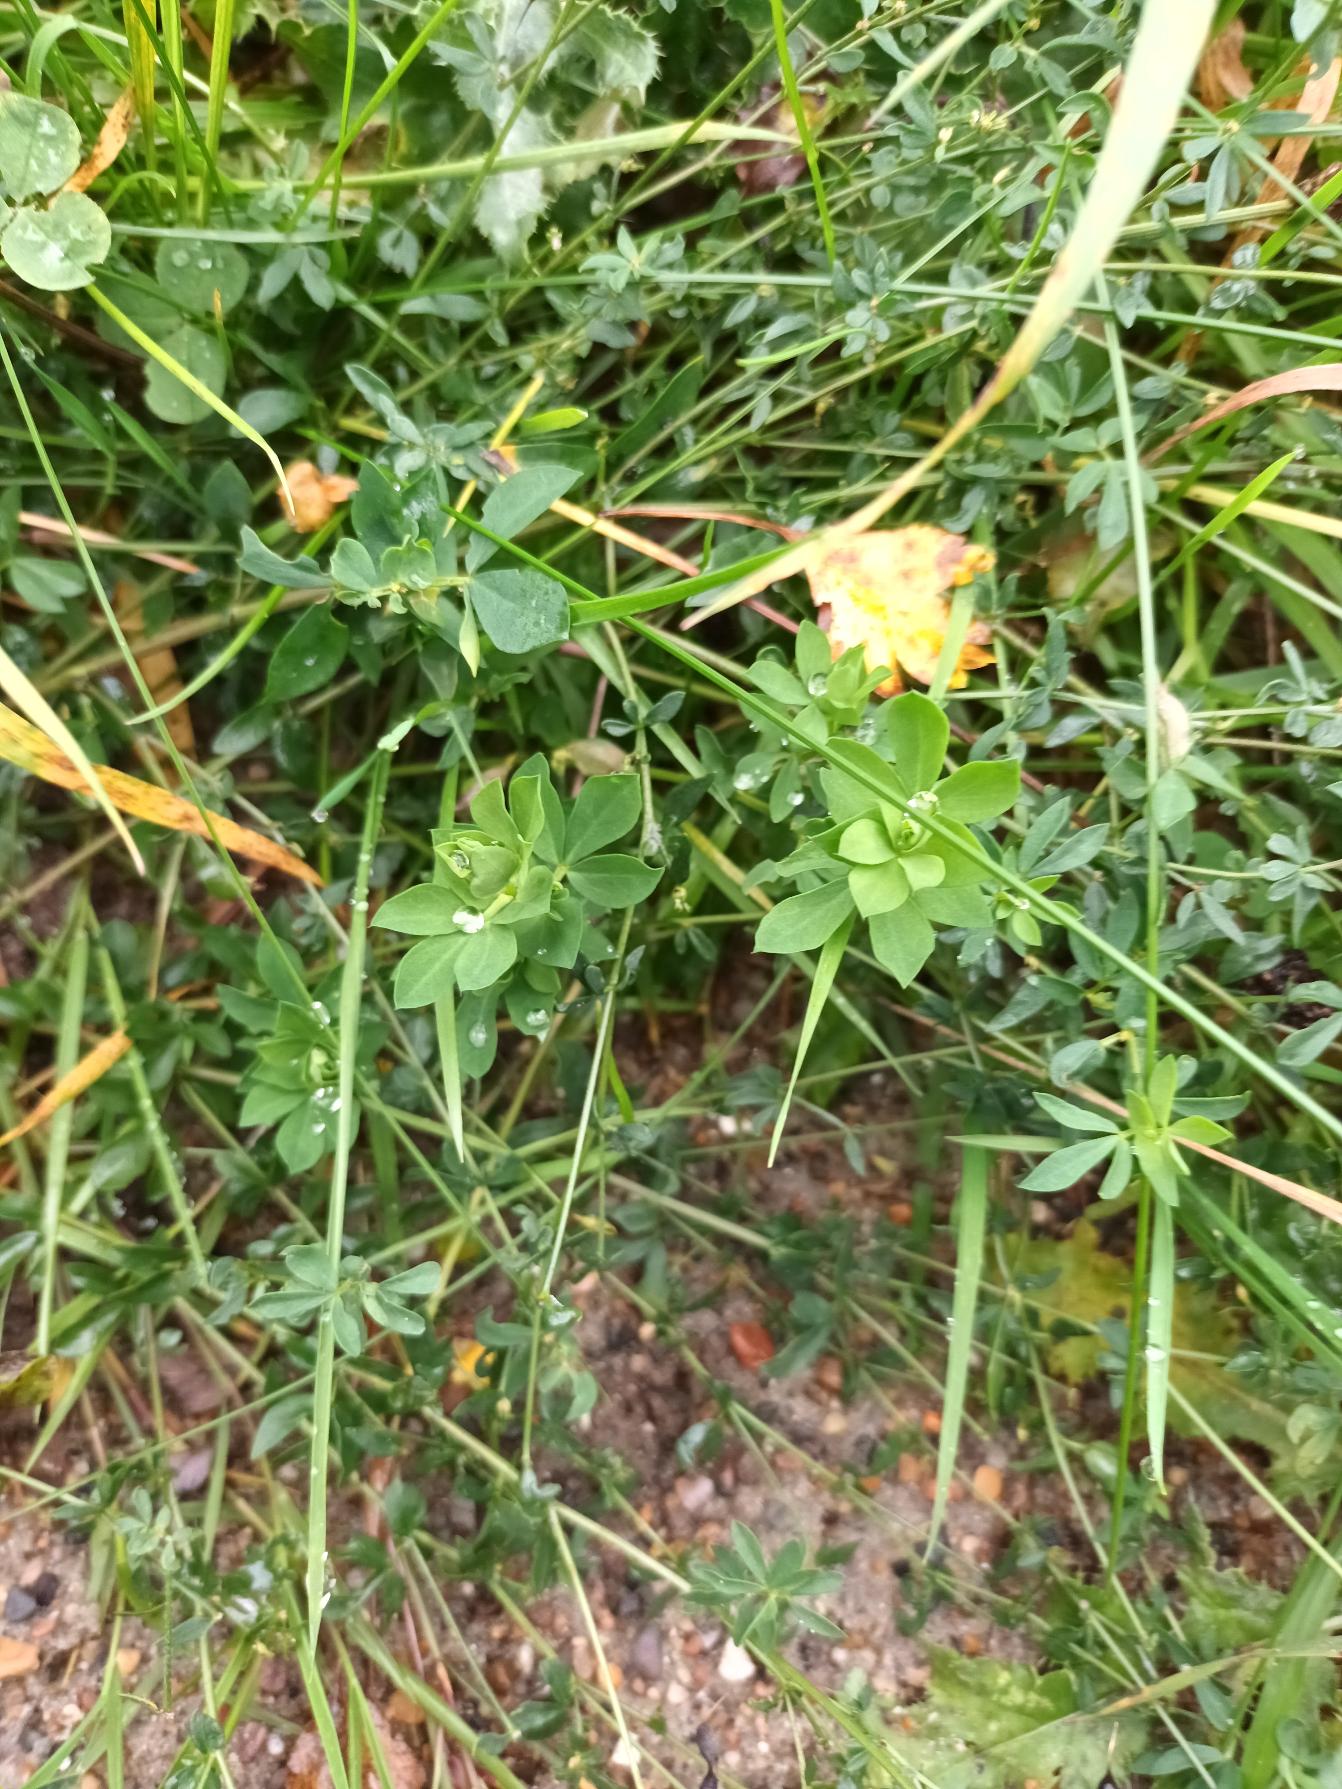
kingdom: Plantae
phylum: Tracheophyta
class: Magnoliopsida
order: Fabales
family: Fabaceae
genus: Lotus
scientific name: Lotus corniculatus
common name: Almindelig kællingetand
